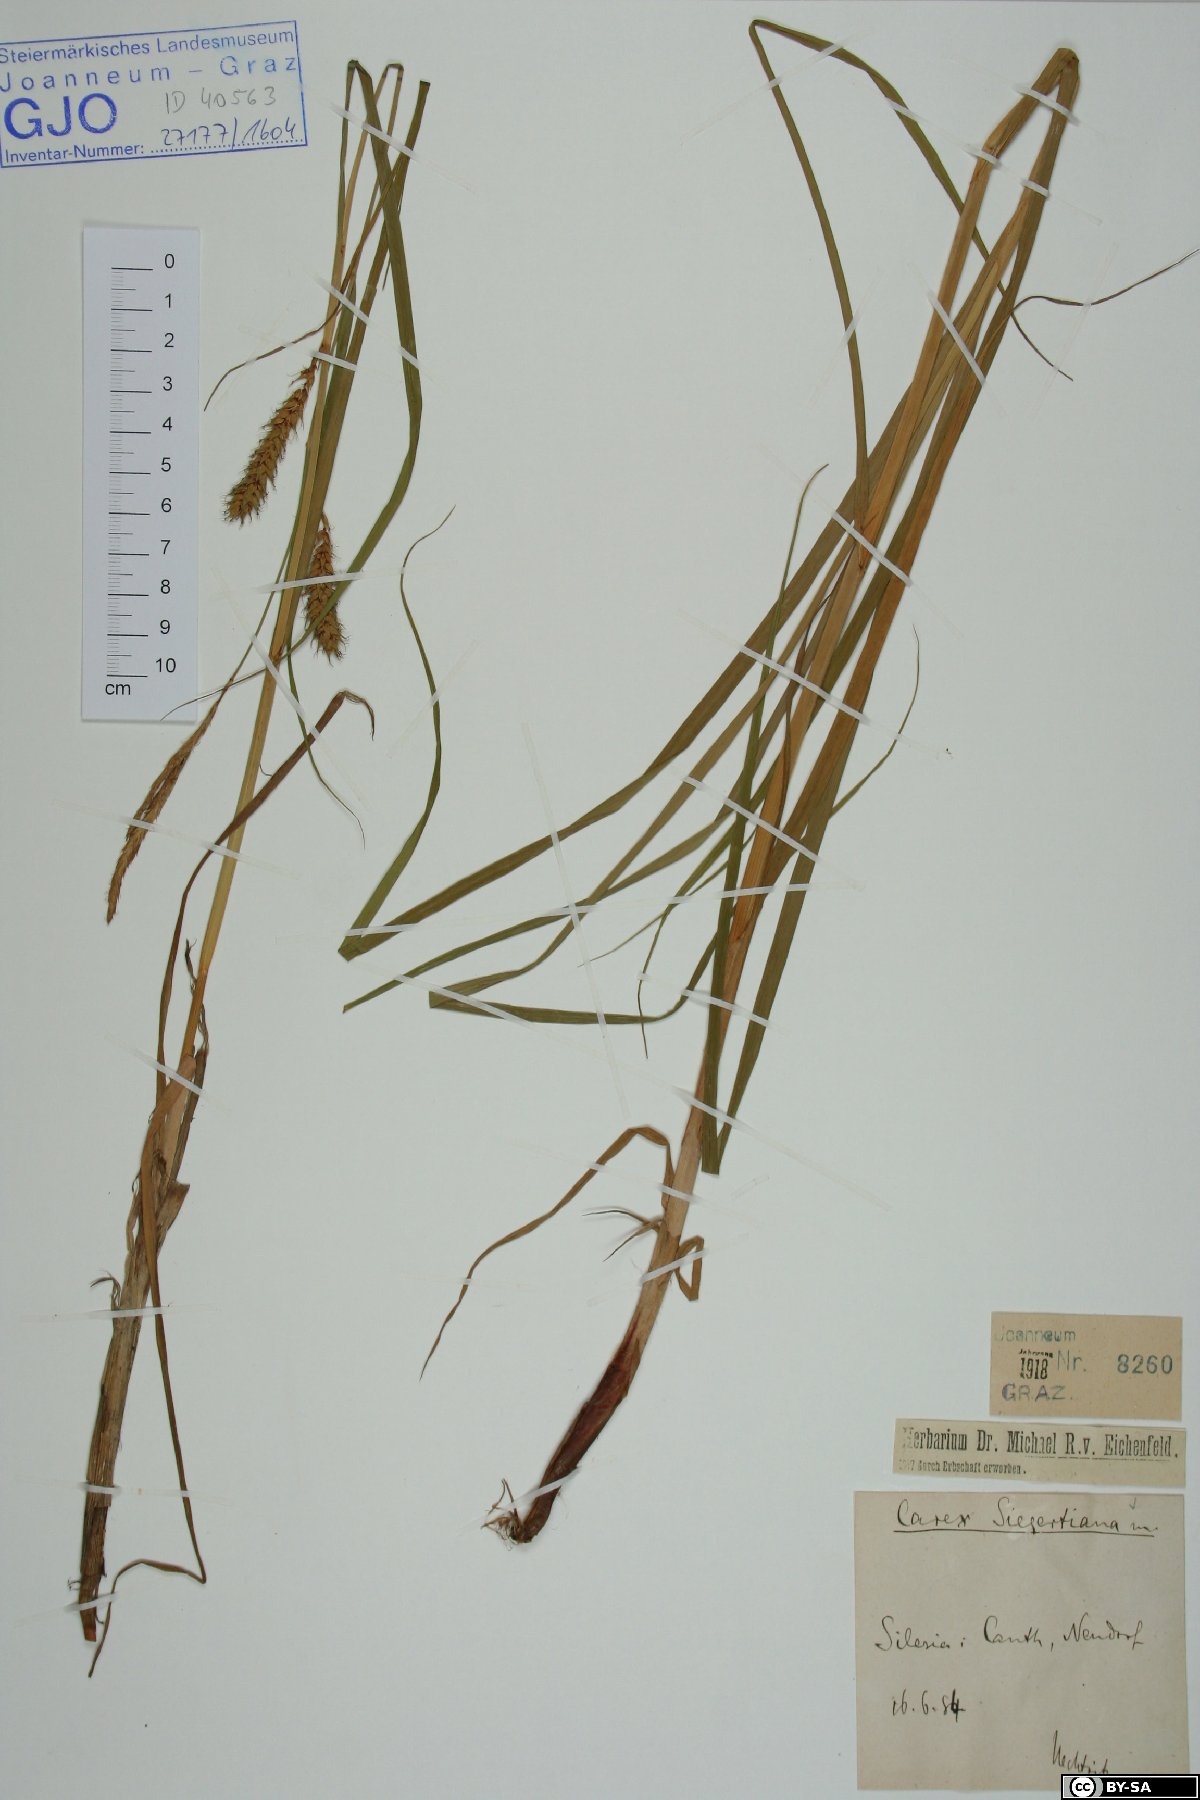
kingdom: Plantae
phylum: Tracheophyta
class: Liliopsida
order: Poales
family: Cyperaceae
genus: Carex
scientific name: Carex atherodes
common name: Wheat sedge
